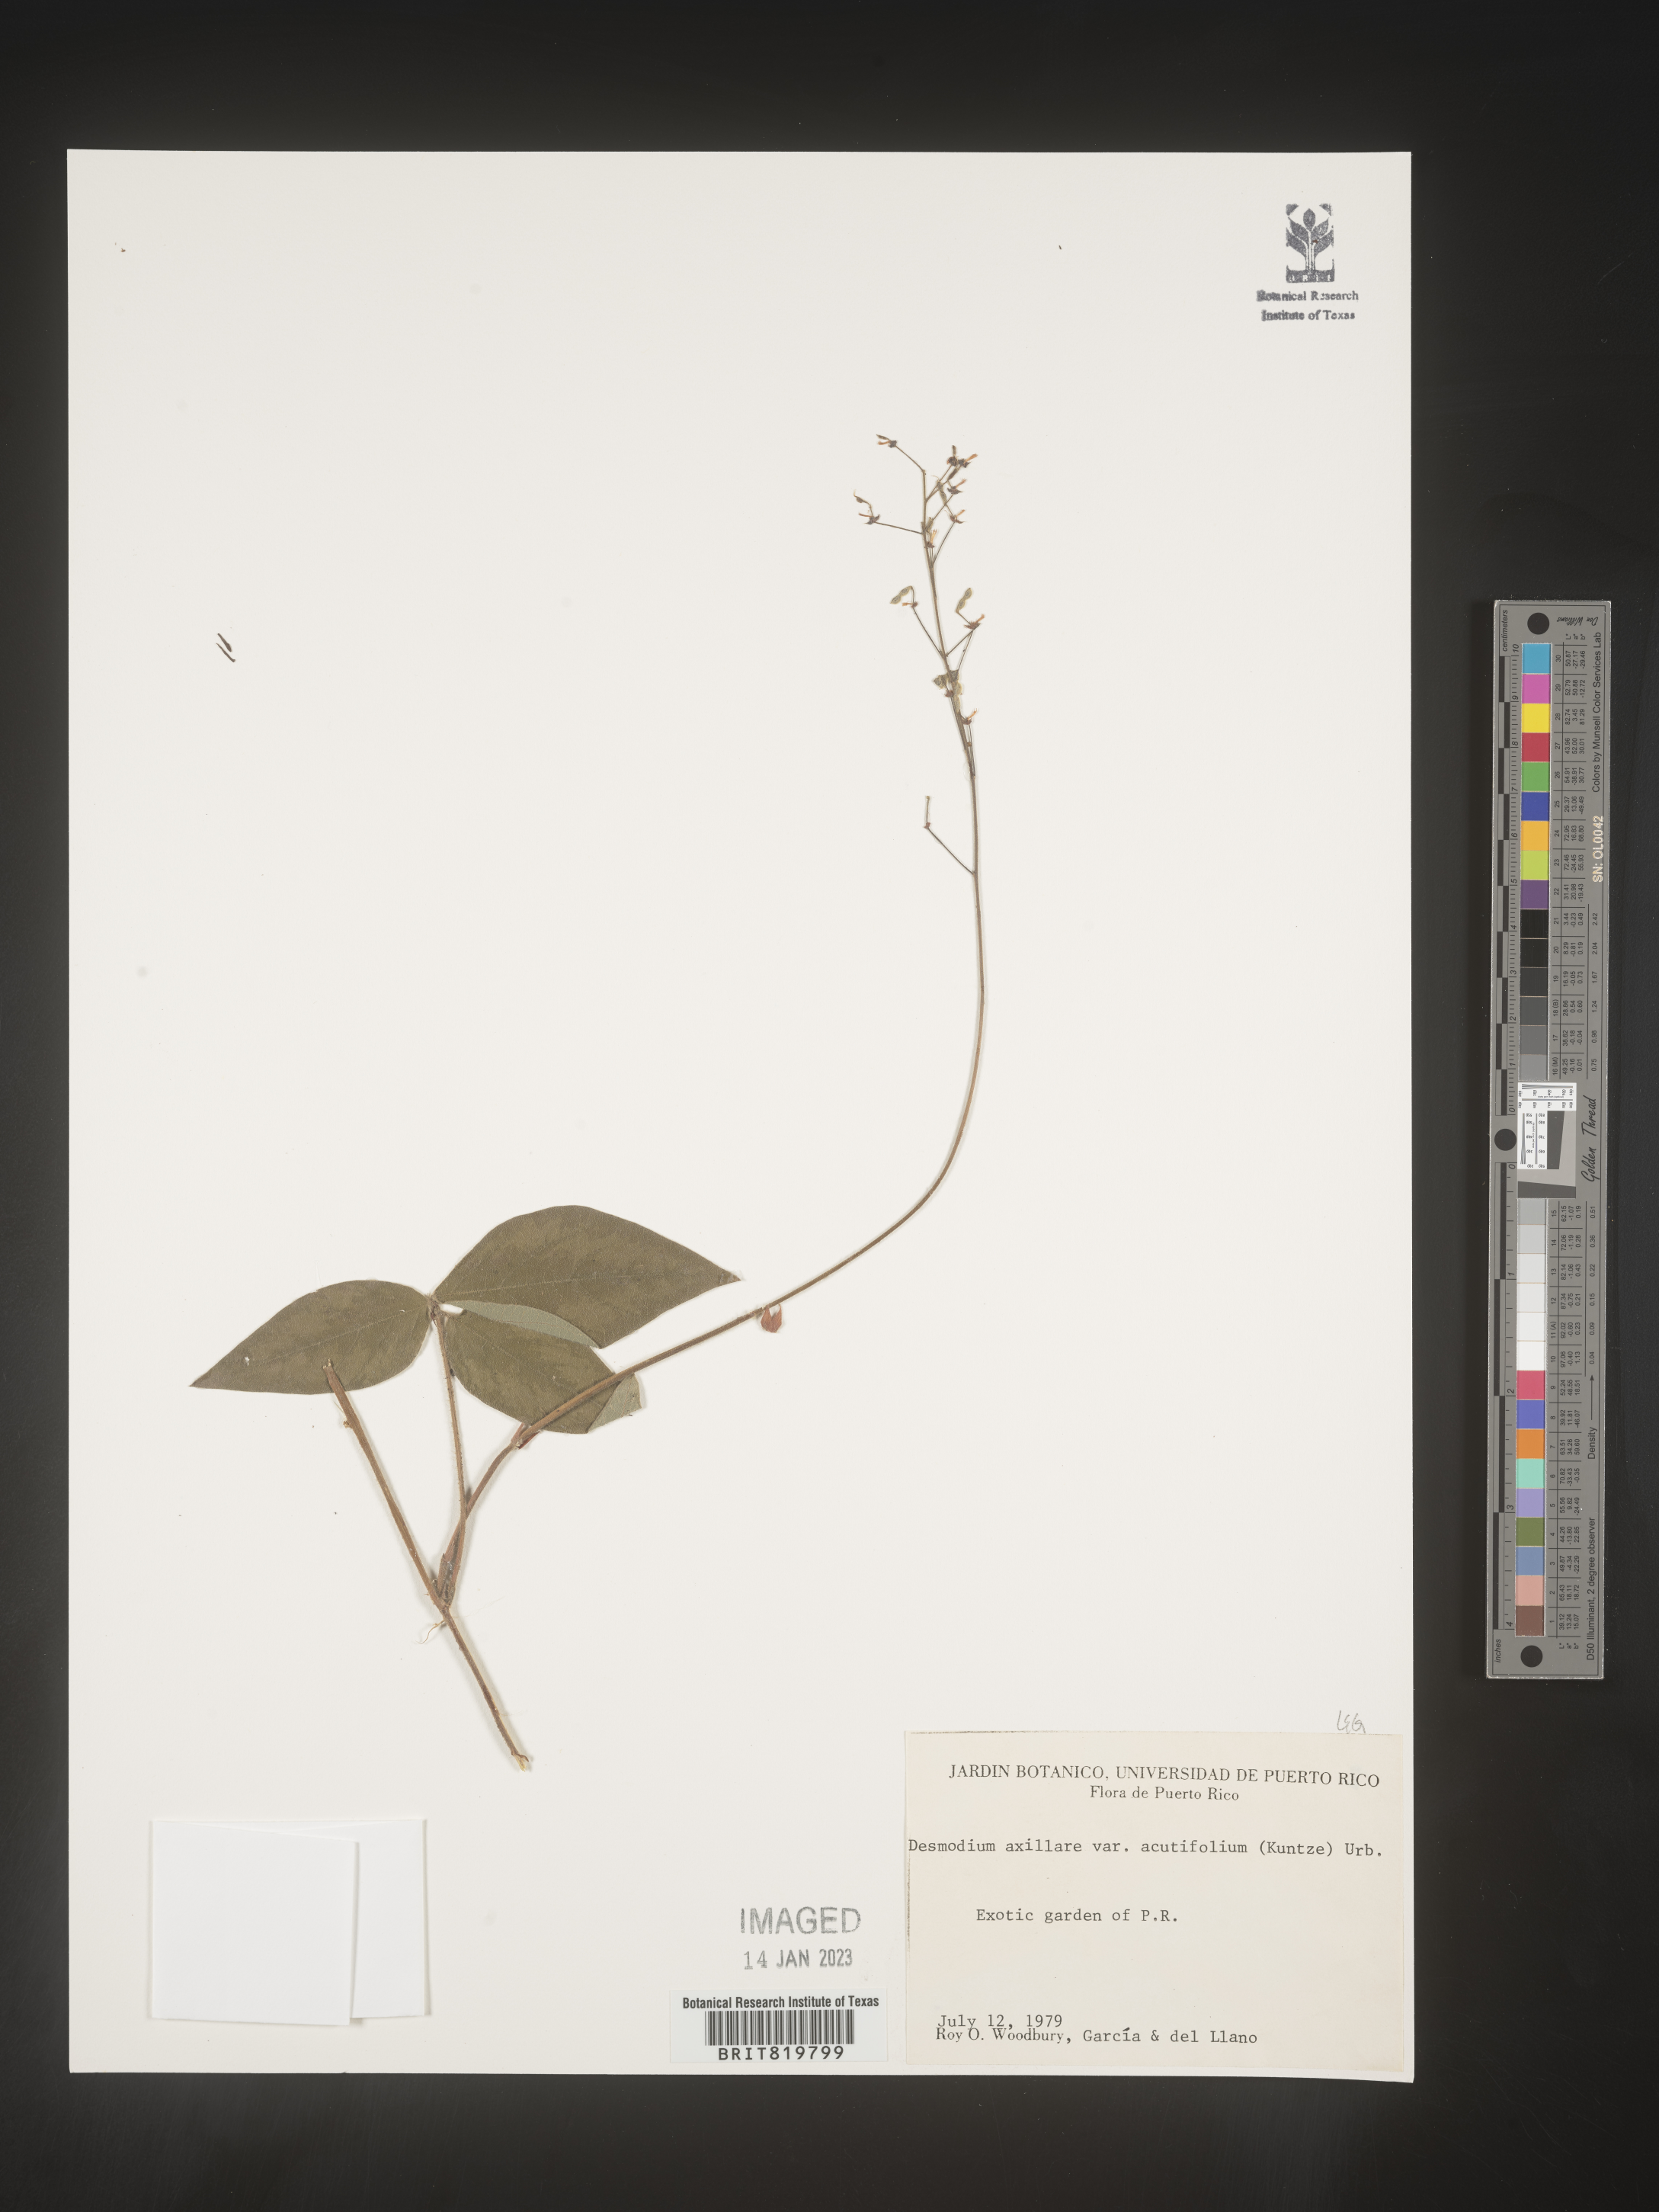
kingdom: Plantae
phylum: Tracheophyta
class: Magnoliopsida
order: Fabales
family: Fabaceae
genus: Desmodium
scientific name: Desmodium
